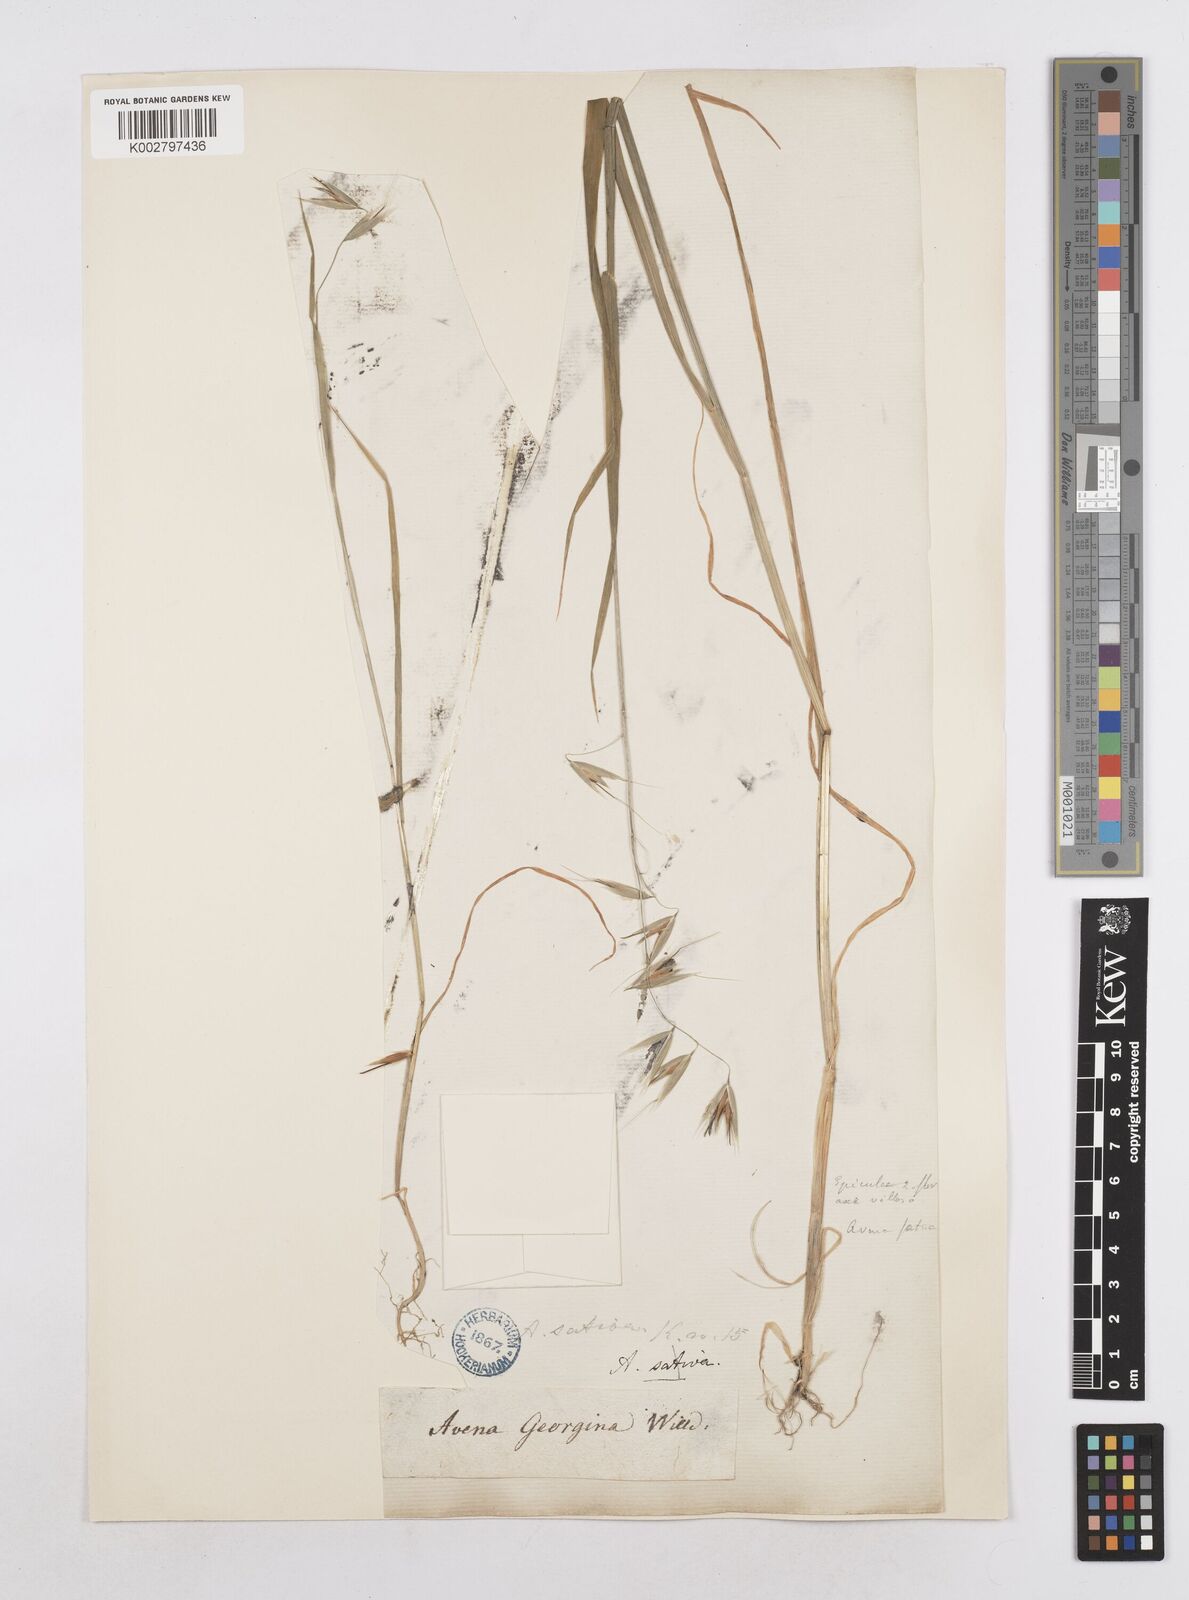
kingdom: Plantae
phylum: Tracheophyta
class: Liliopsida
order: Poales
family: Poaceae
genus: Avena
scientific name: Avena fatua
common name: Wild oat
